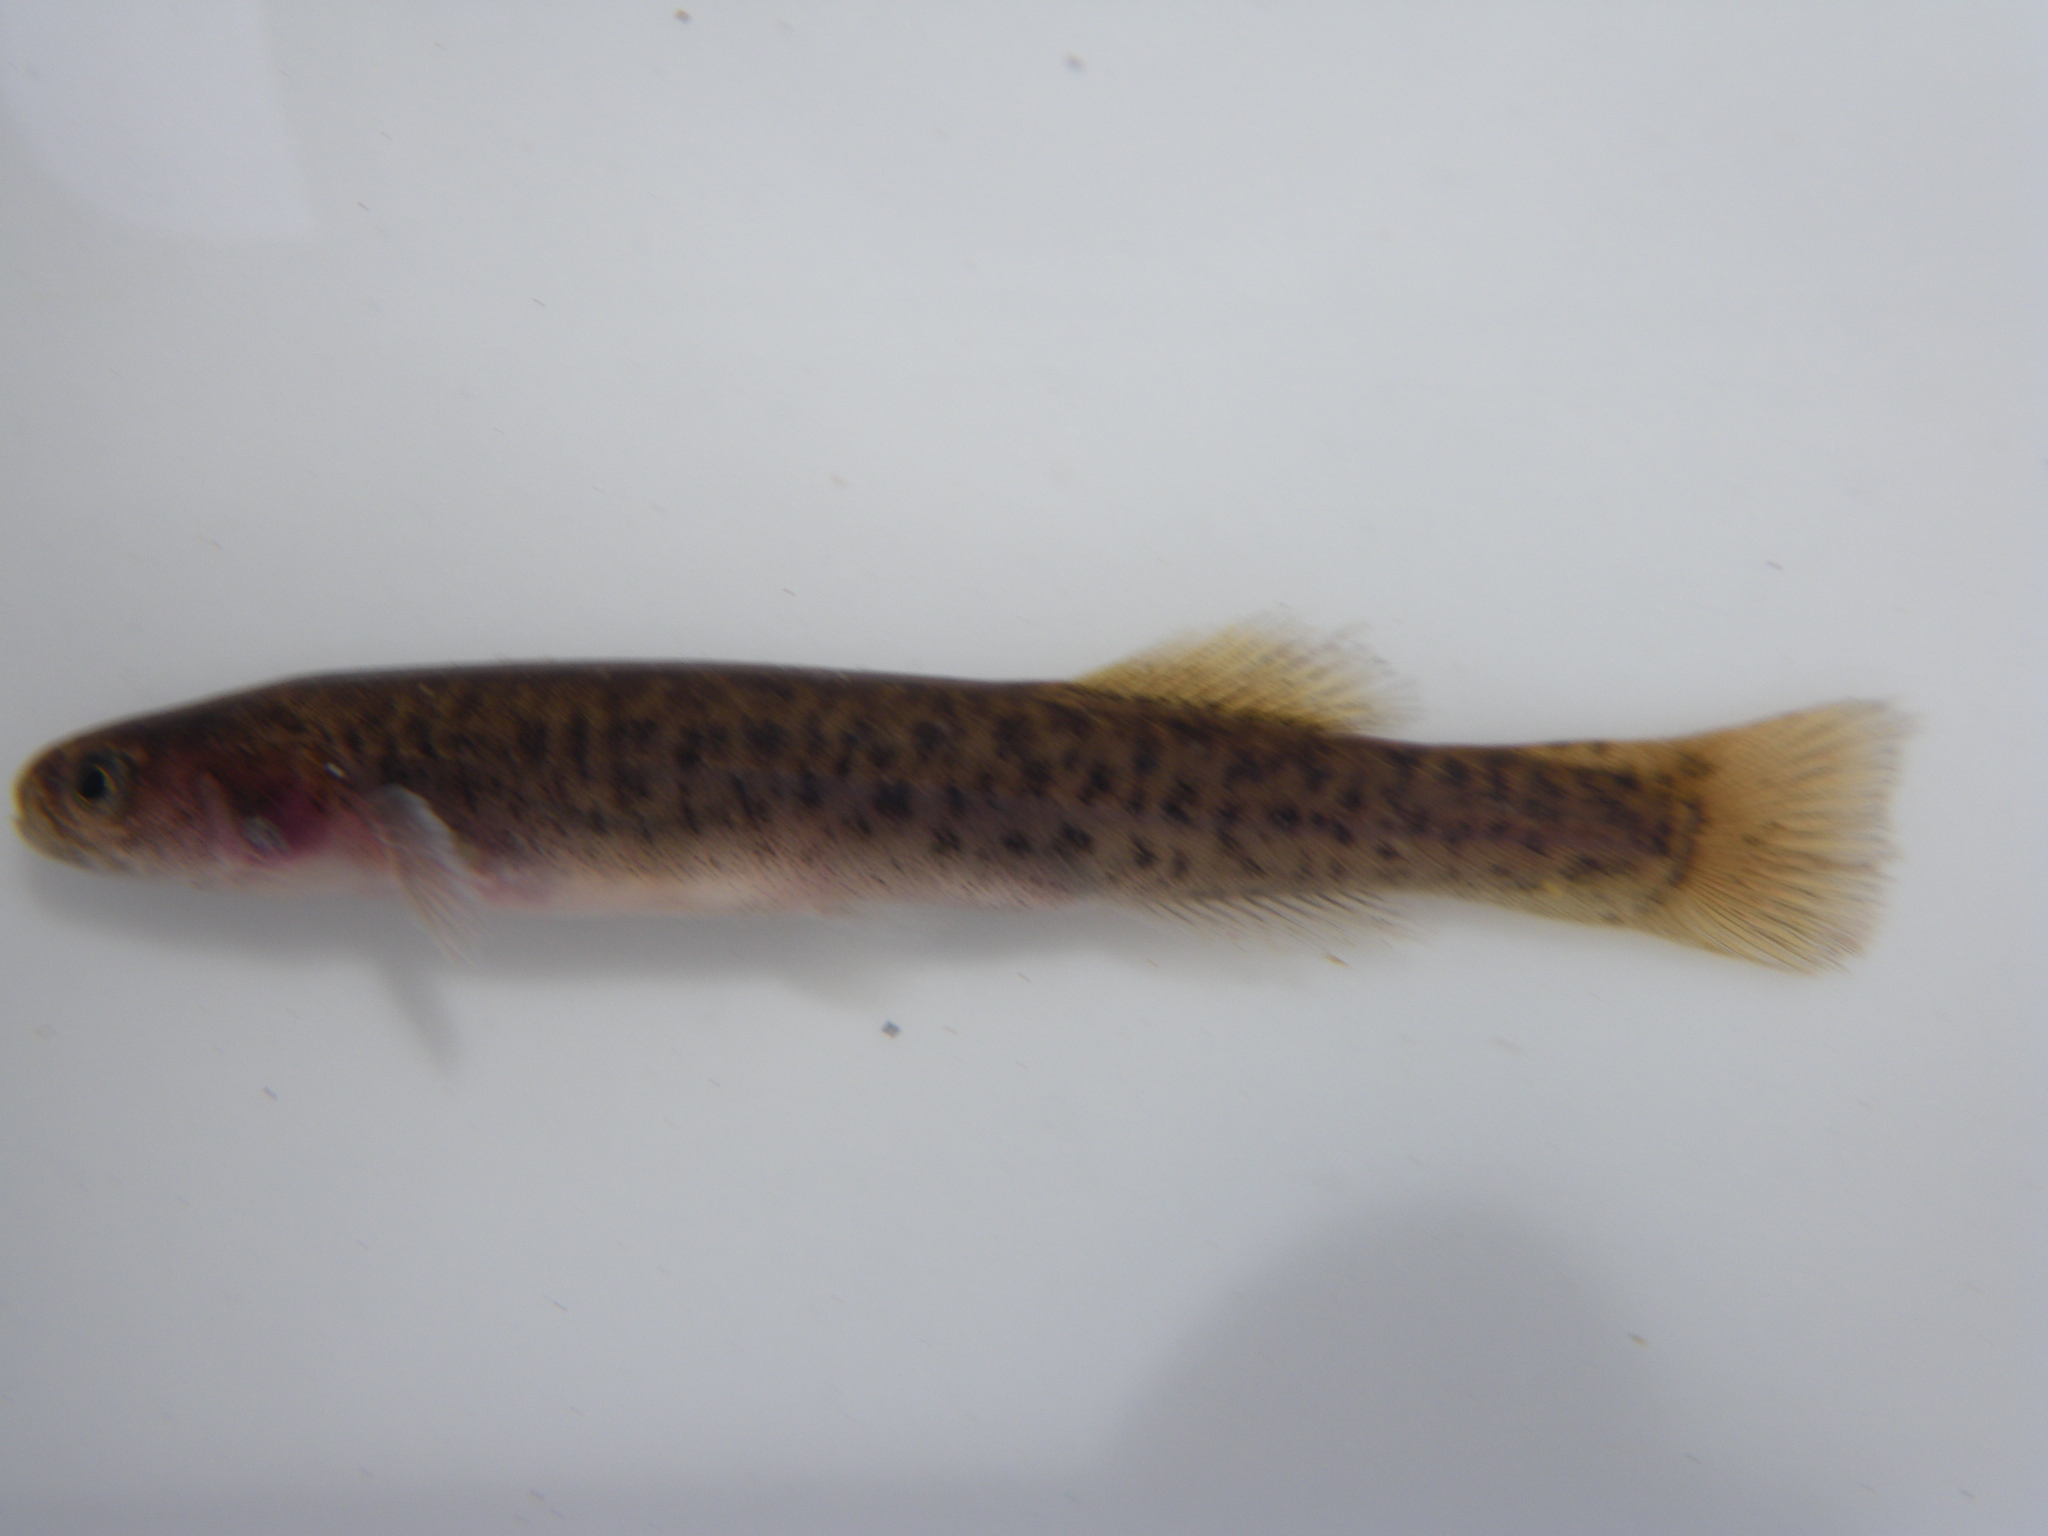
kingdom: Animalia
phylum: Chordata
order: Osmeriformes
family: Galaxiidae
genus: Galaxias
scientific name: Galaxias
